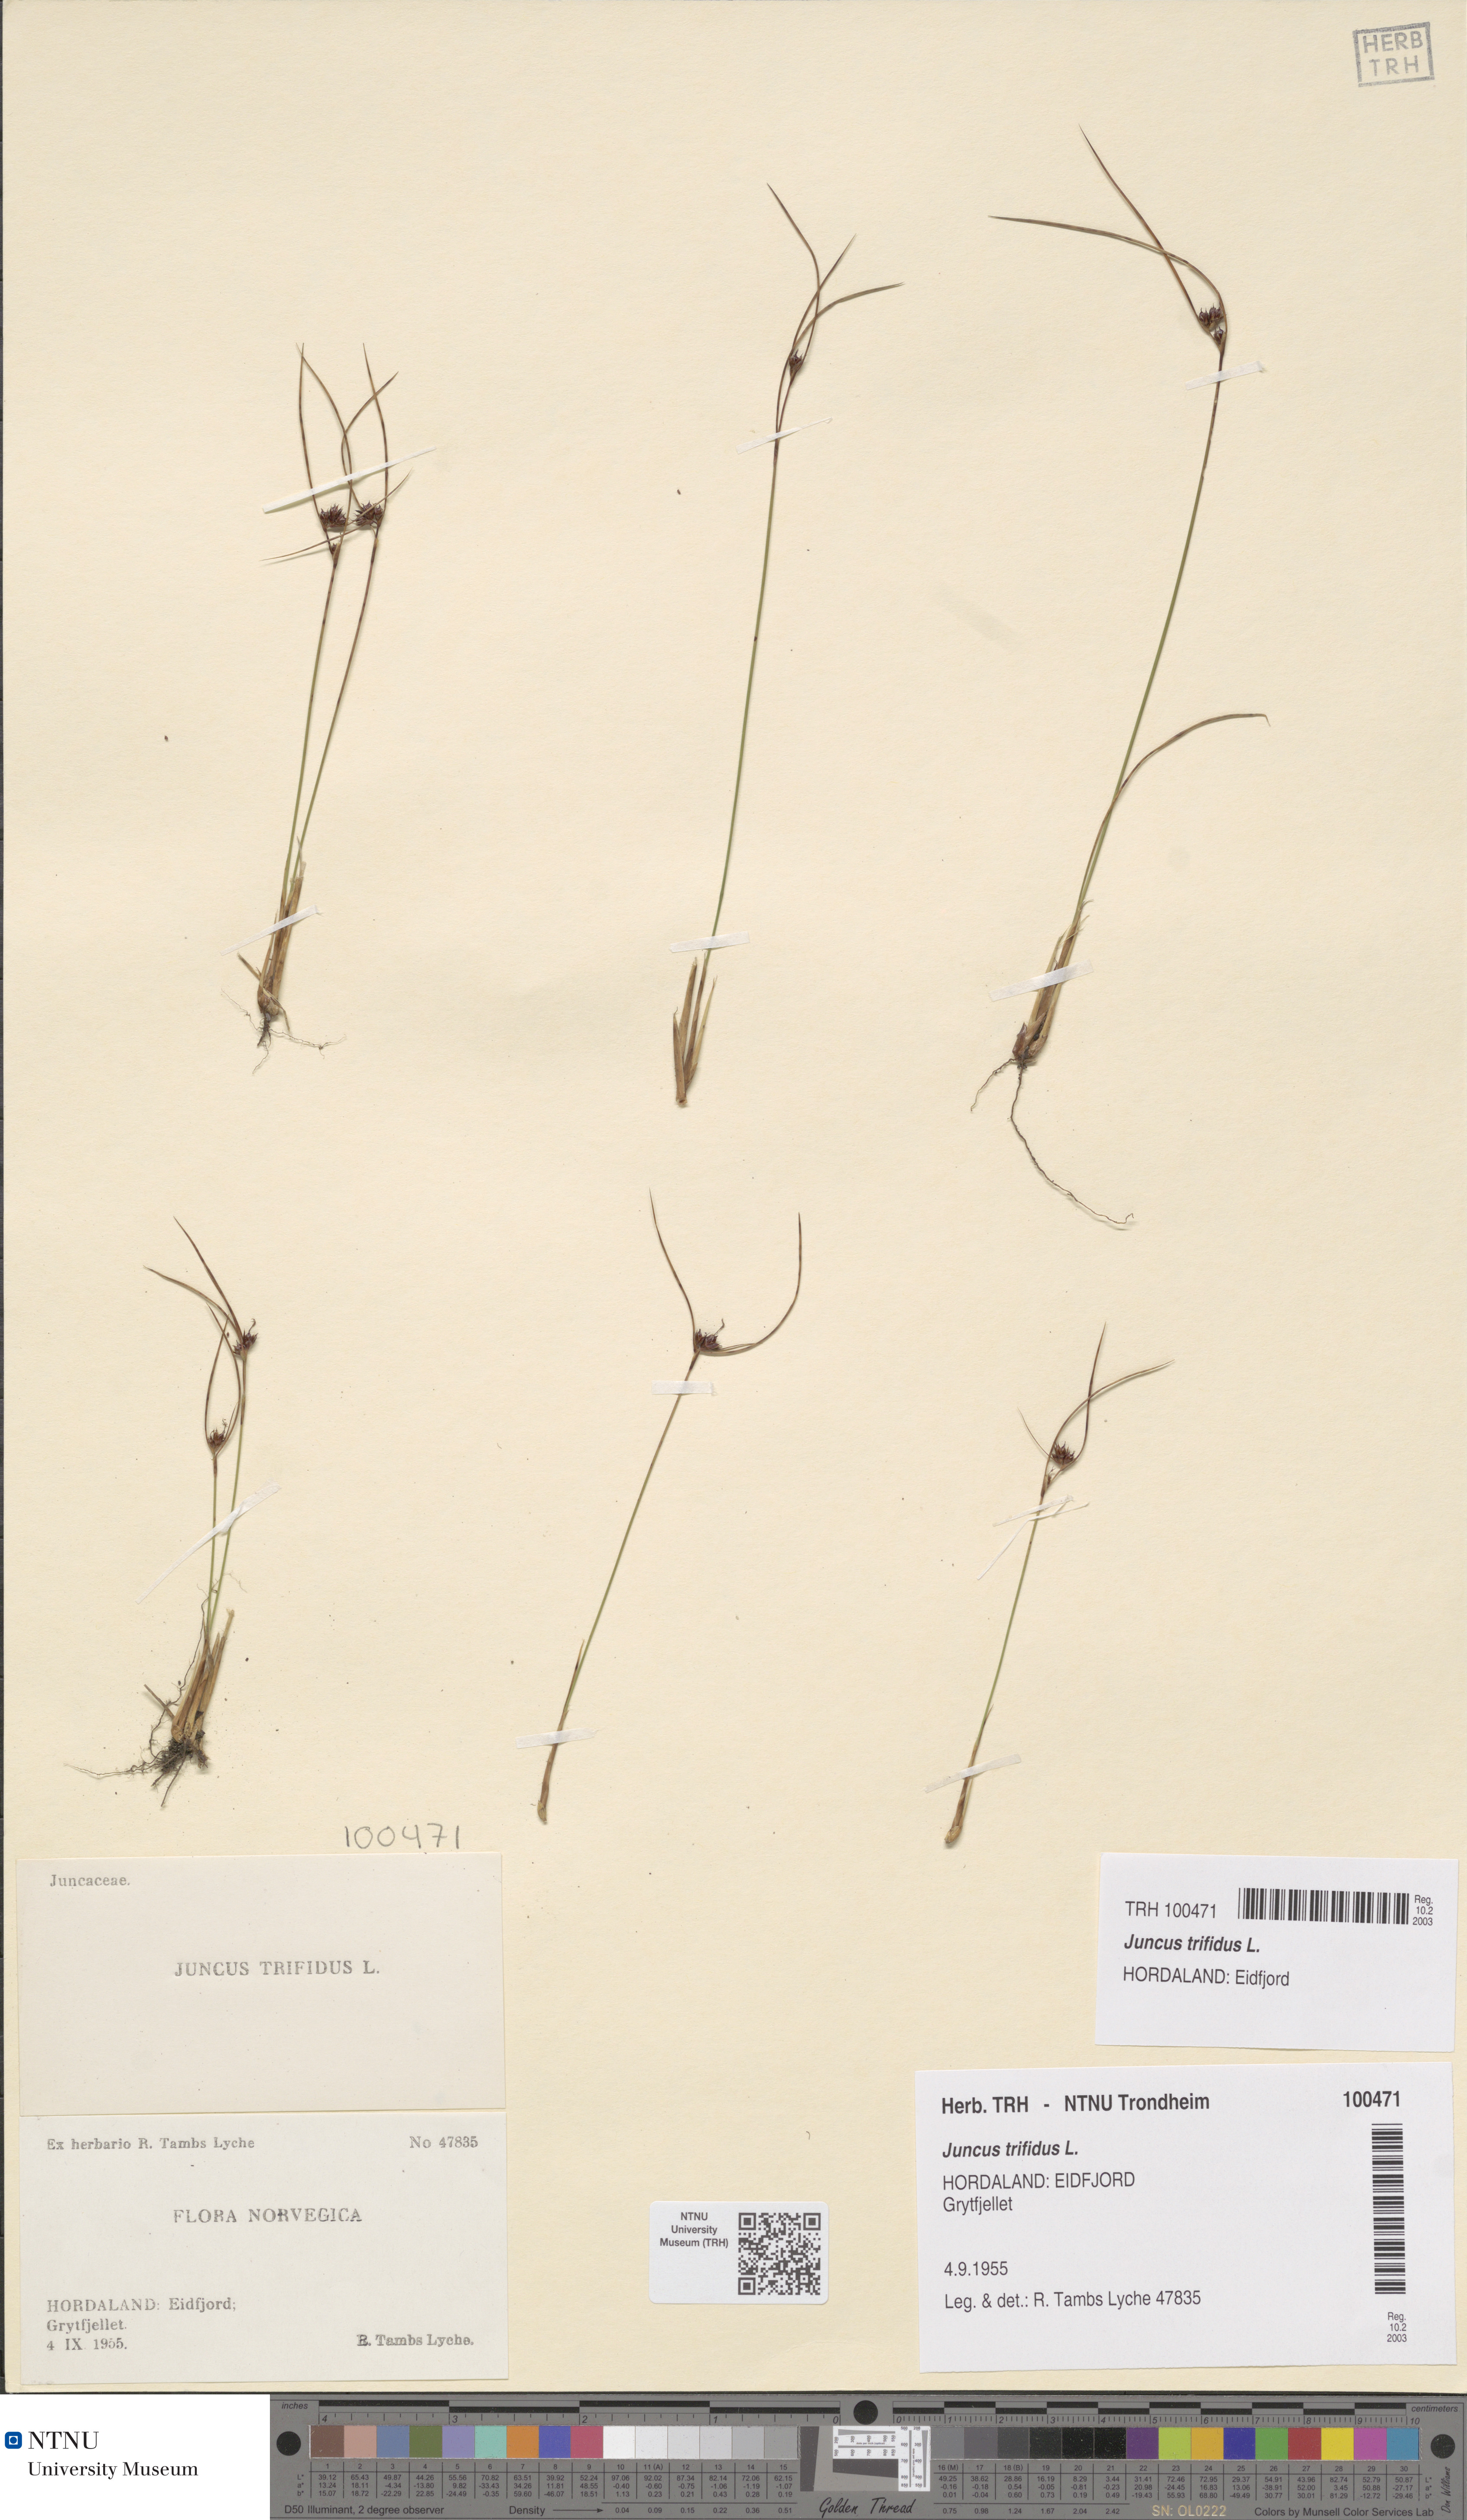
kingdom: Plantae
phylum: Tracheophyta
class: Liliopsida
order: Poales
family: Juncaceae
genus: Oreojuncus
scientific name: Oreojuncus trifidus
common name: Highland rush
